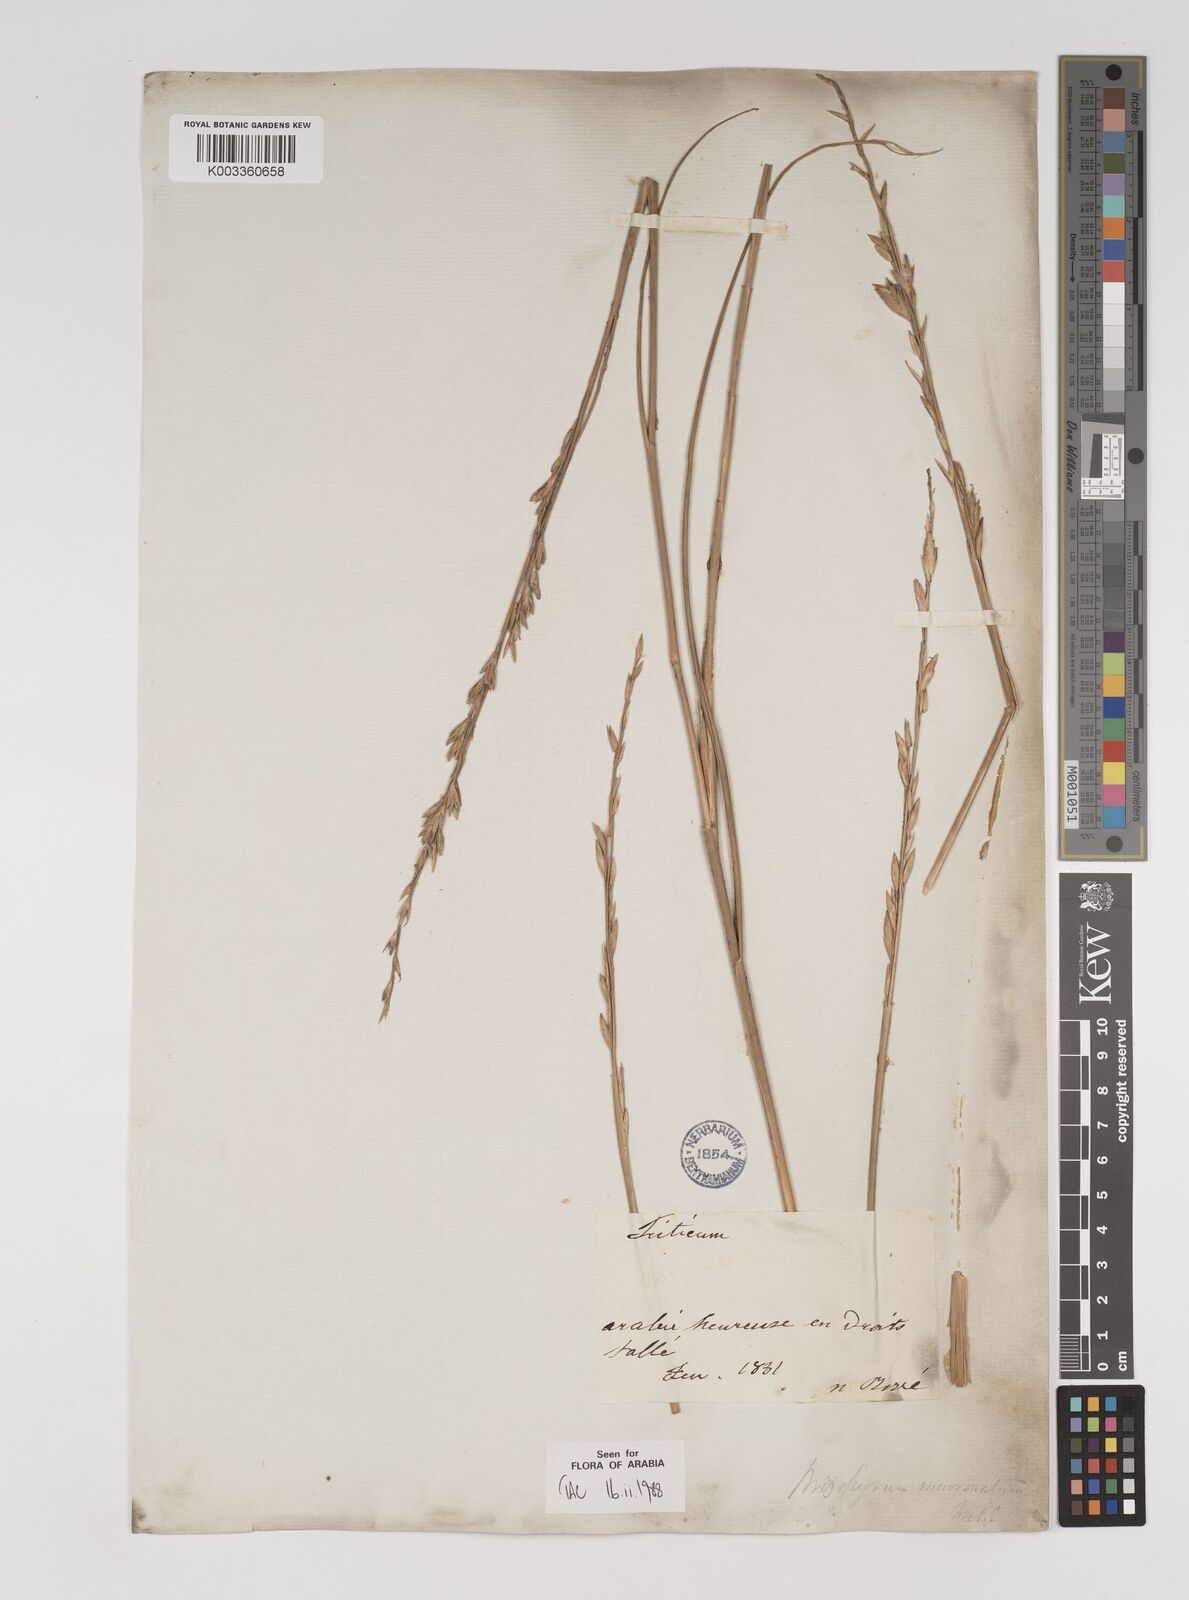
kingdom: Plantae
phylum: Tracheophyta
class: Liliopsida
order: Poales
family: Poaceae
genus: Halopyrum
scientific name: Halopyrum mucronatum
